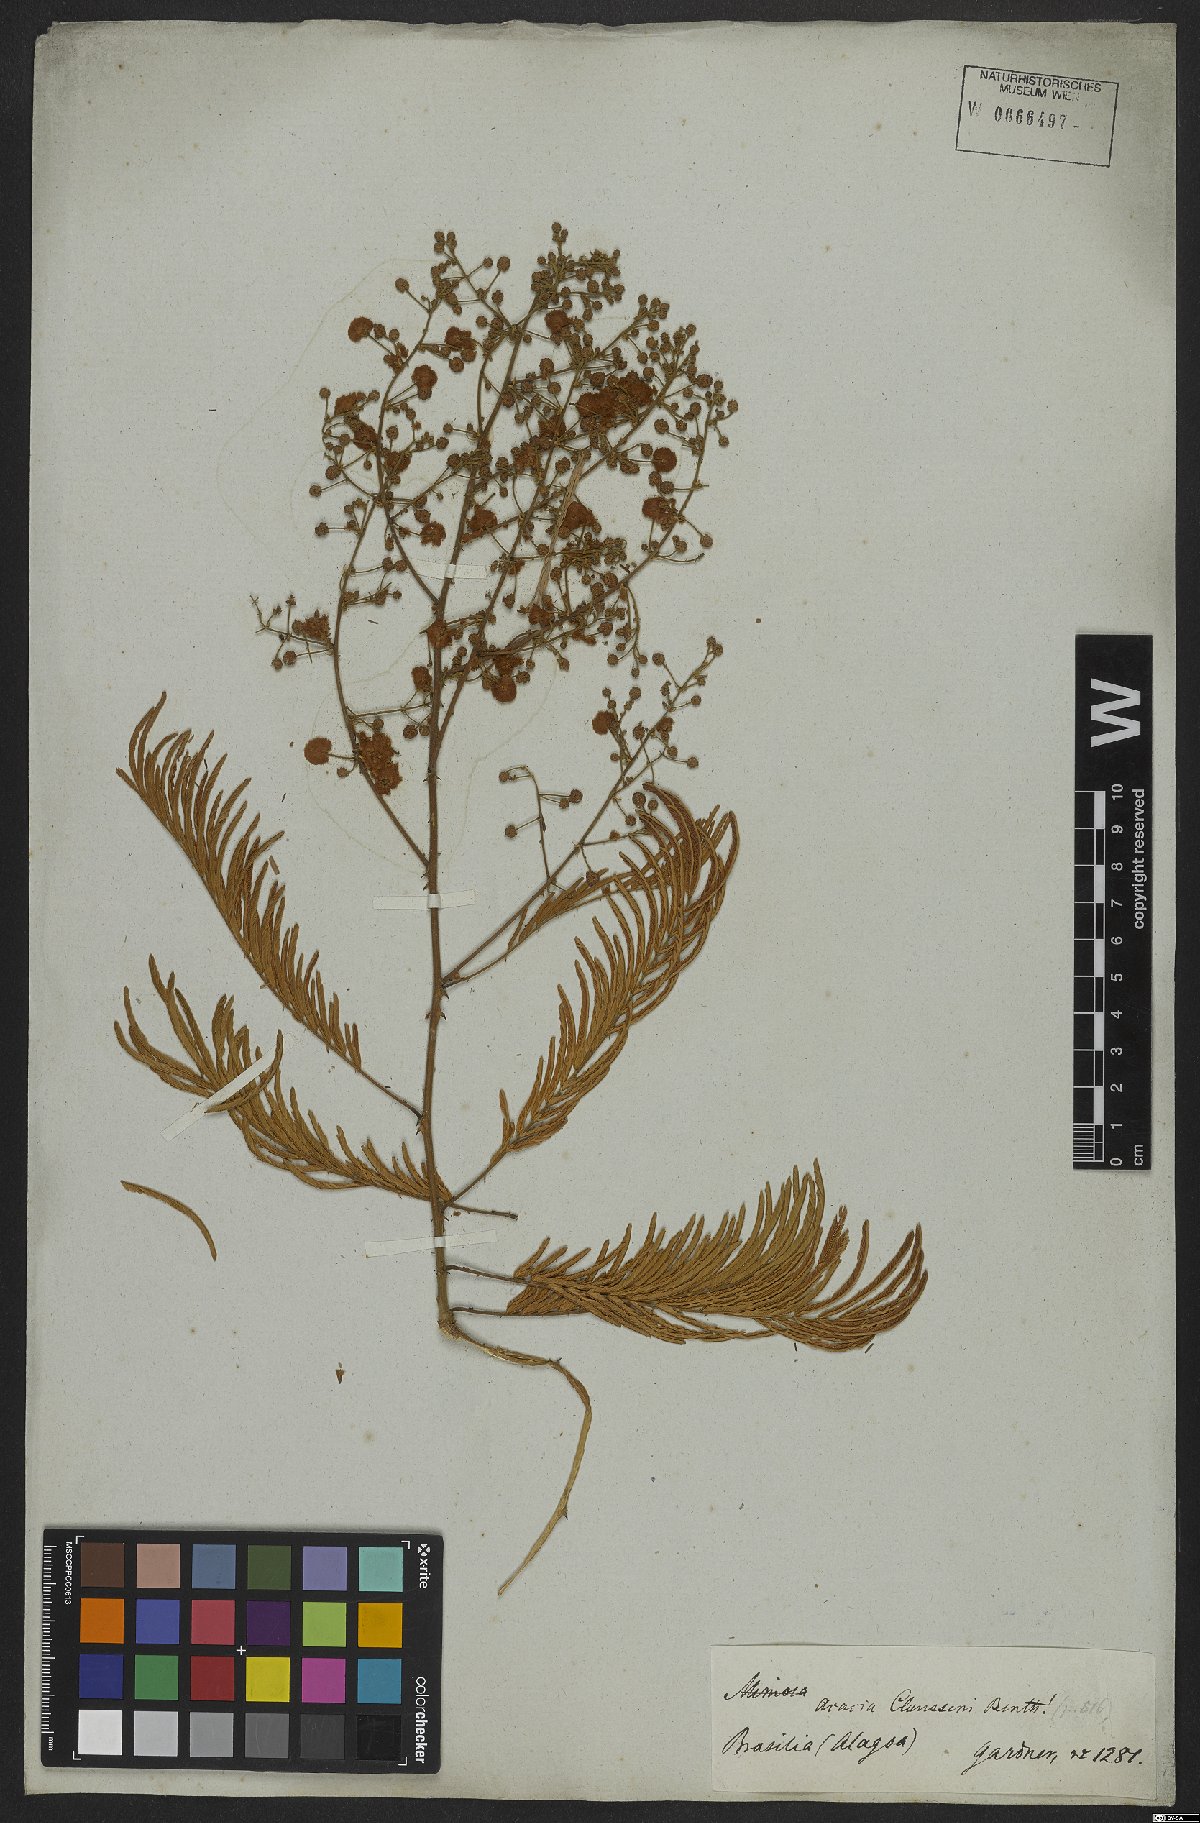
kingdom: Plantae
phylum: Tracheophyta
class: Magnoliopsida
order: Fabales
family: Fabaceae
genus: Senegalia
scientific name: Senegalia paniculata
